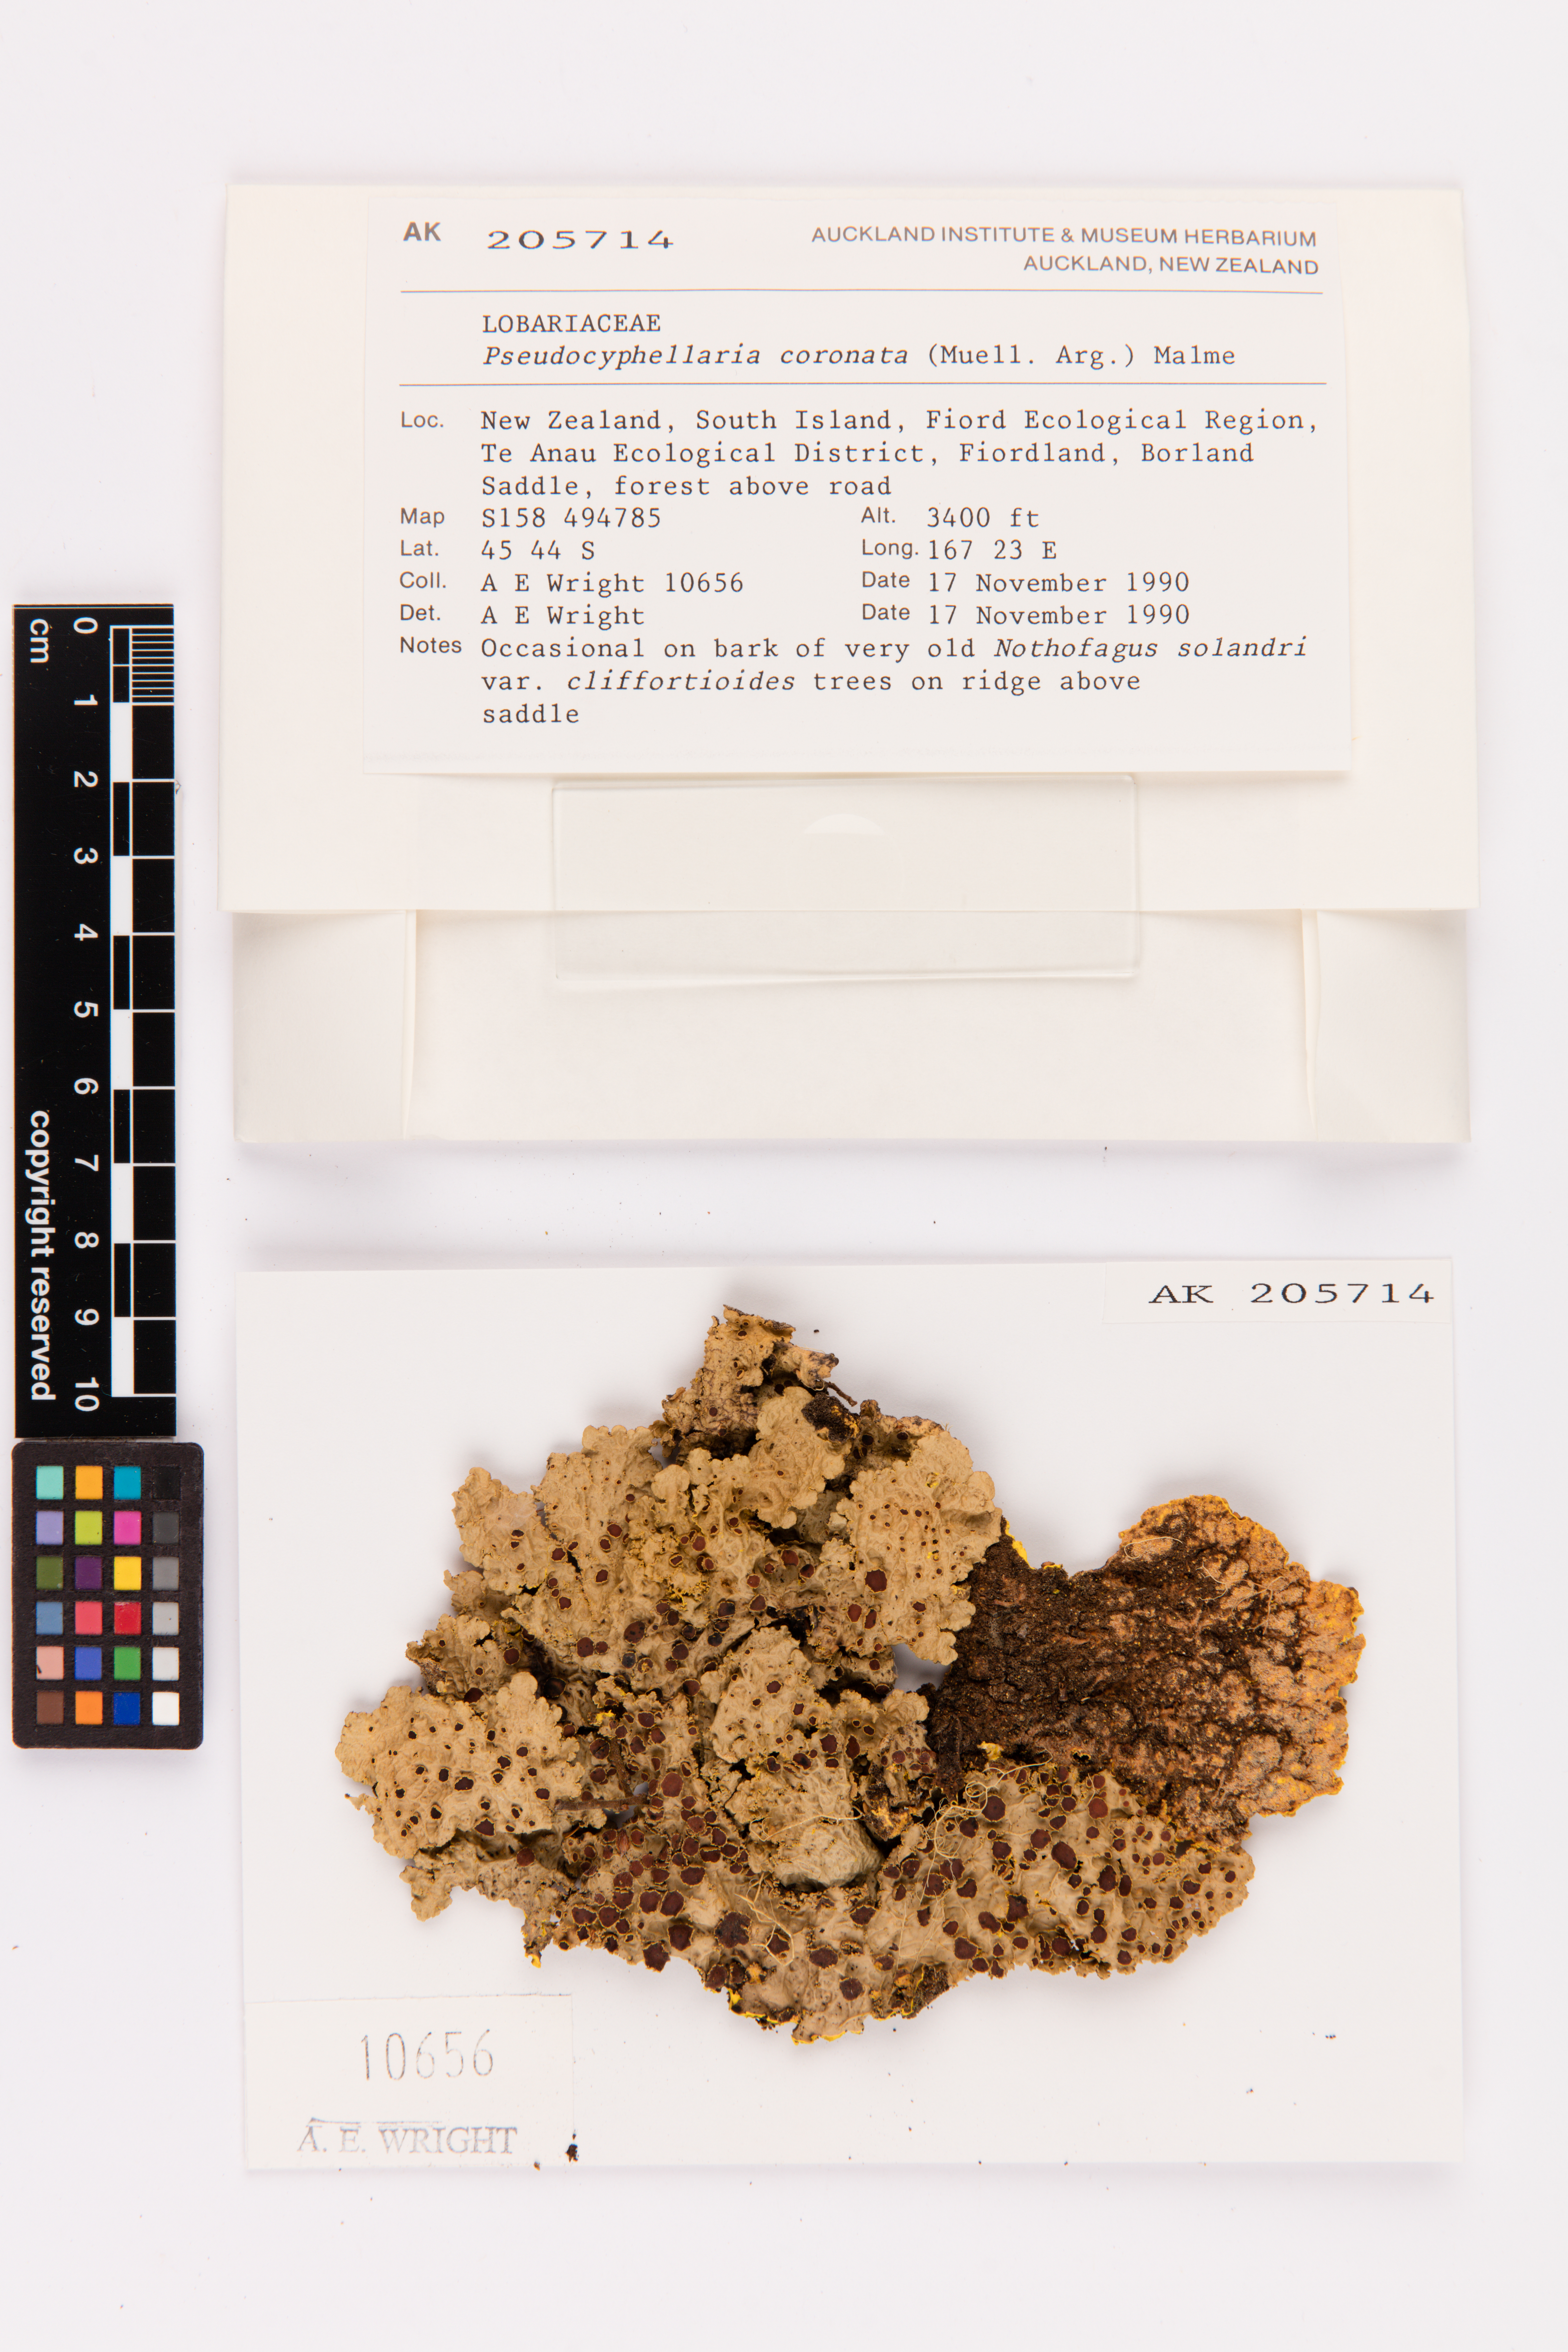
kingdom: Fungi
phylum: Ascomycota
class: Lecanoromycetes
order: Peltigerales
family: Lobariaceae
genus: Yarrumia
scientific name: Yarrumia coronata
